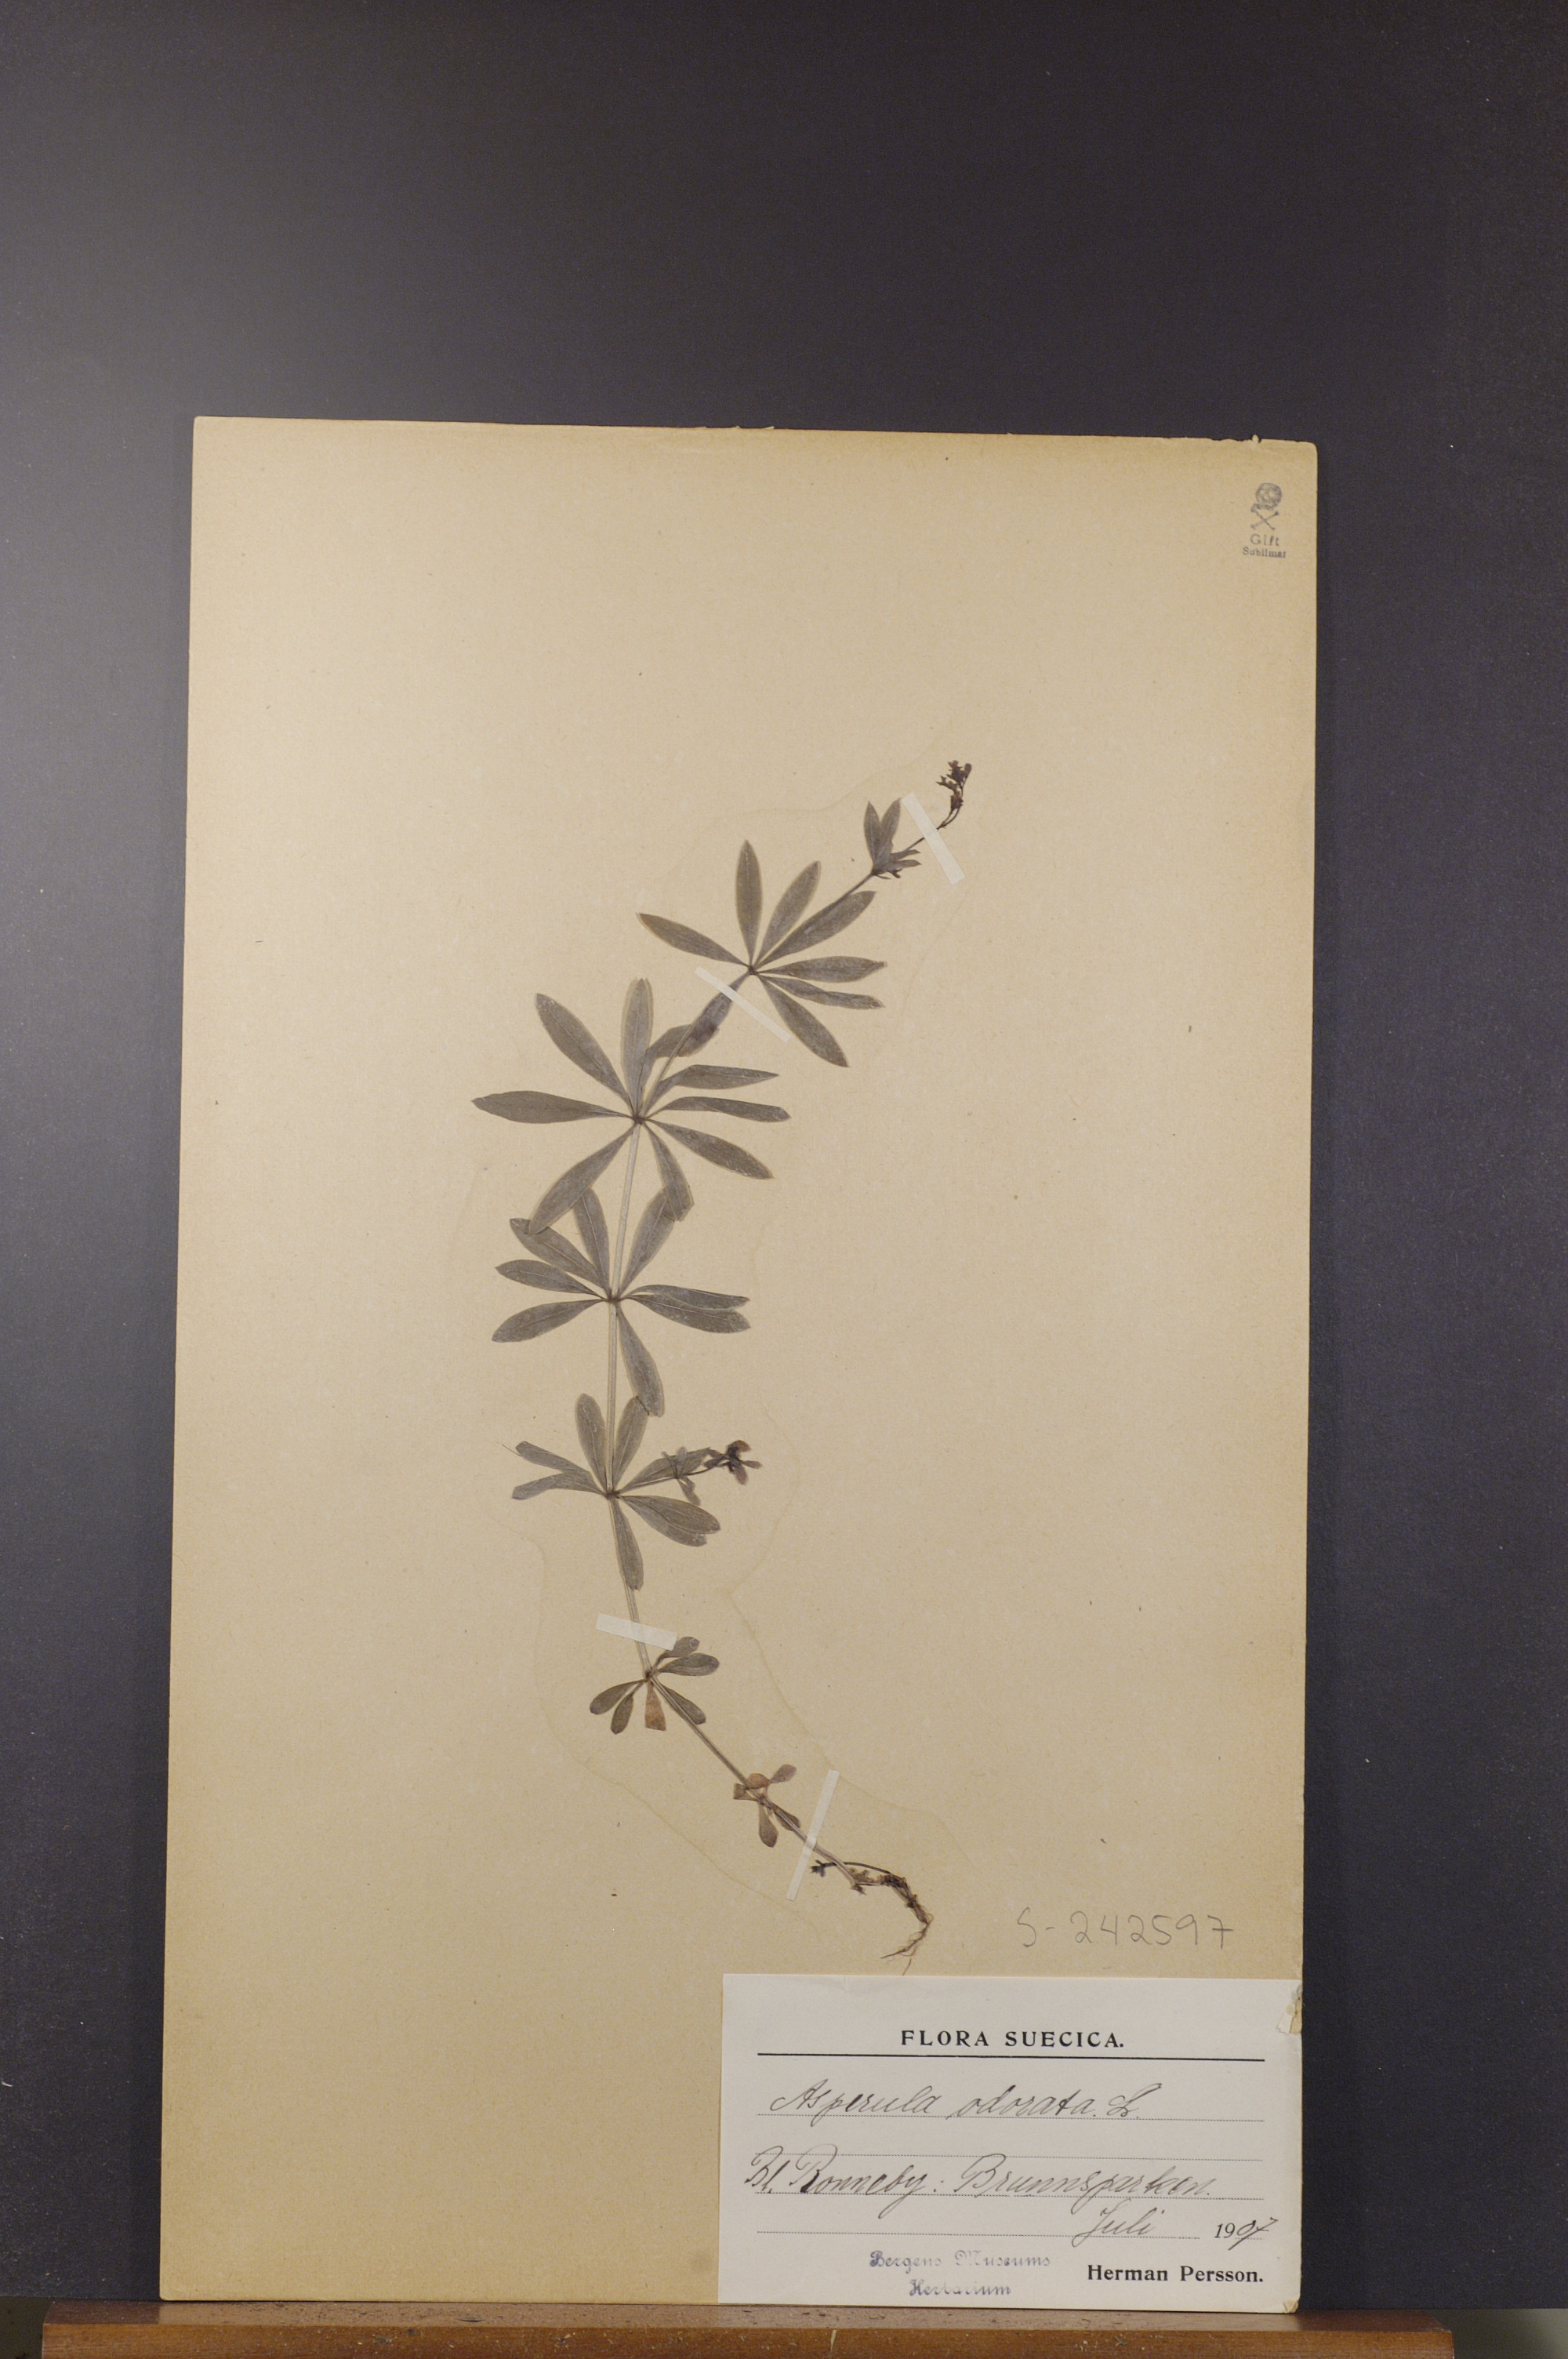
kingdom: Plantae
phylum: Tracheophyta
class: Magnoliopsida
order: Gentianales
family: Rubiaceae
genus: Galium
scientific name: Galium odoratum
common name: Sweet woodruff
